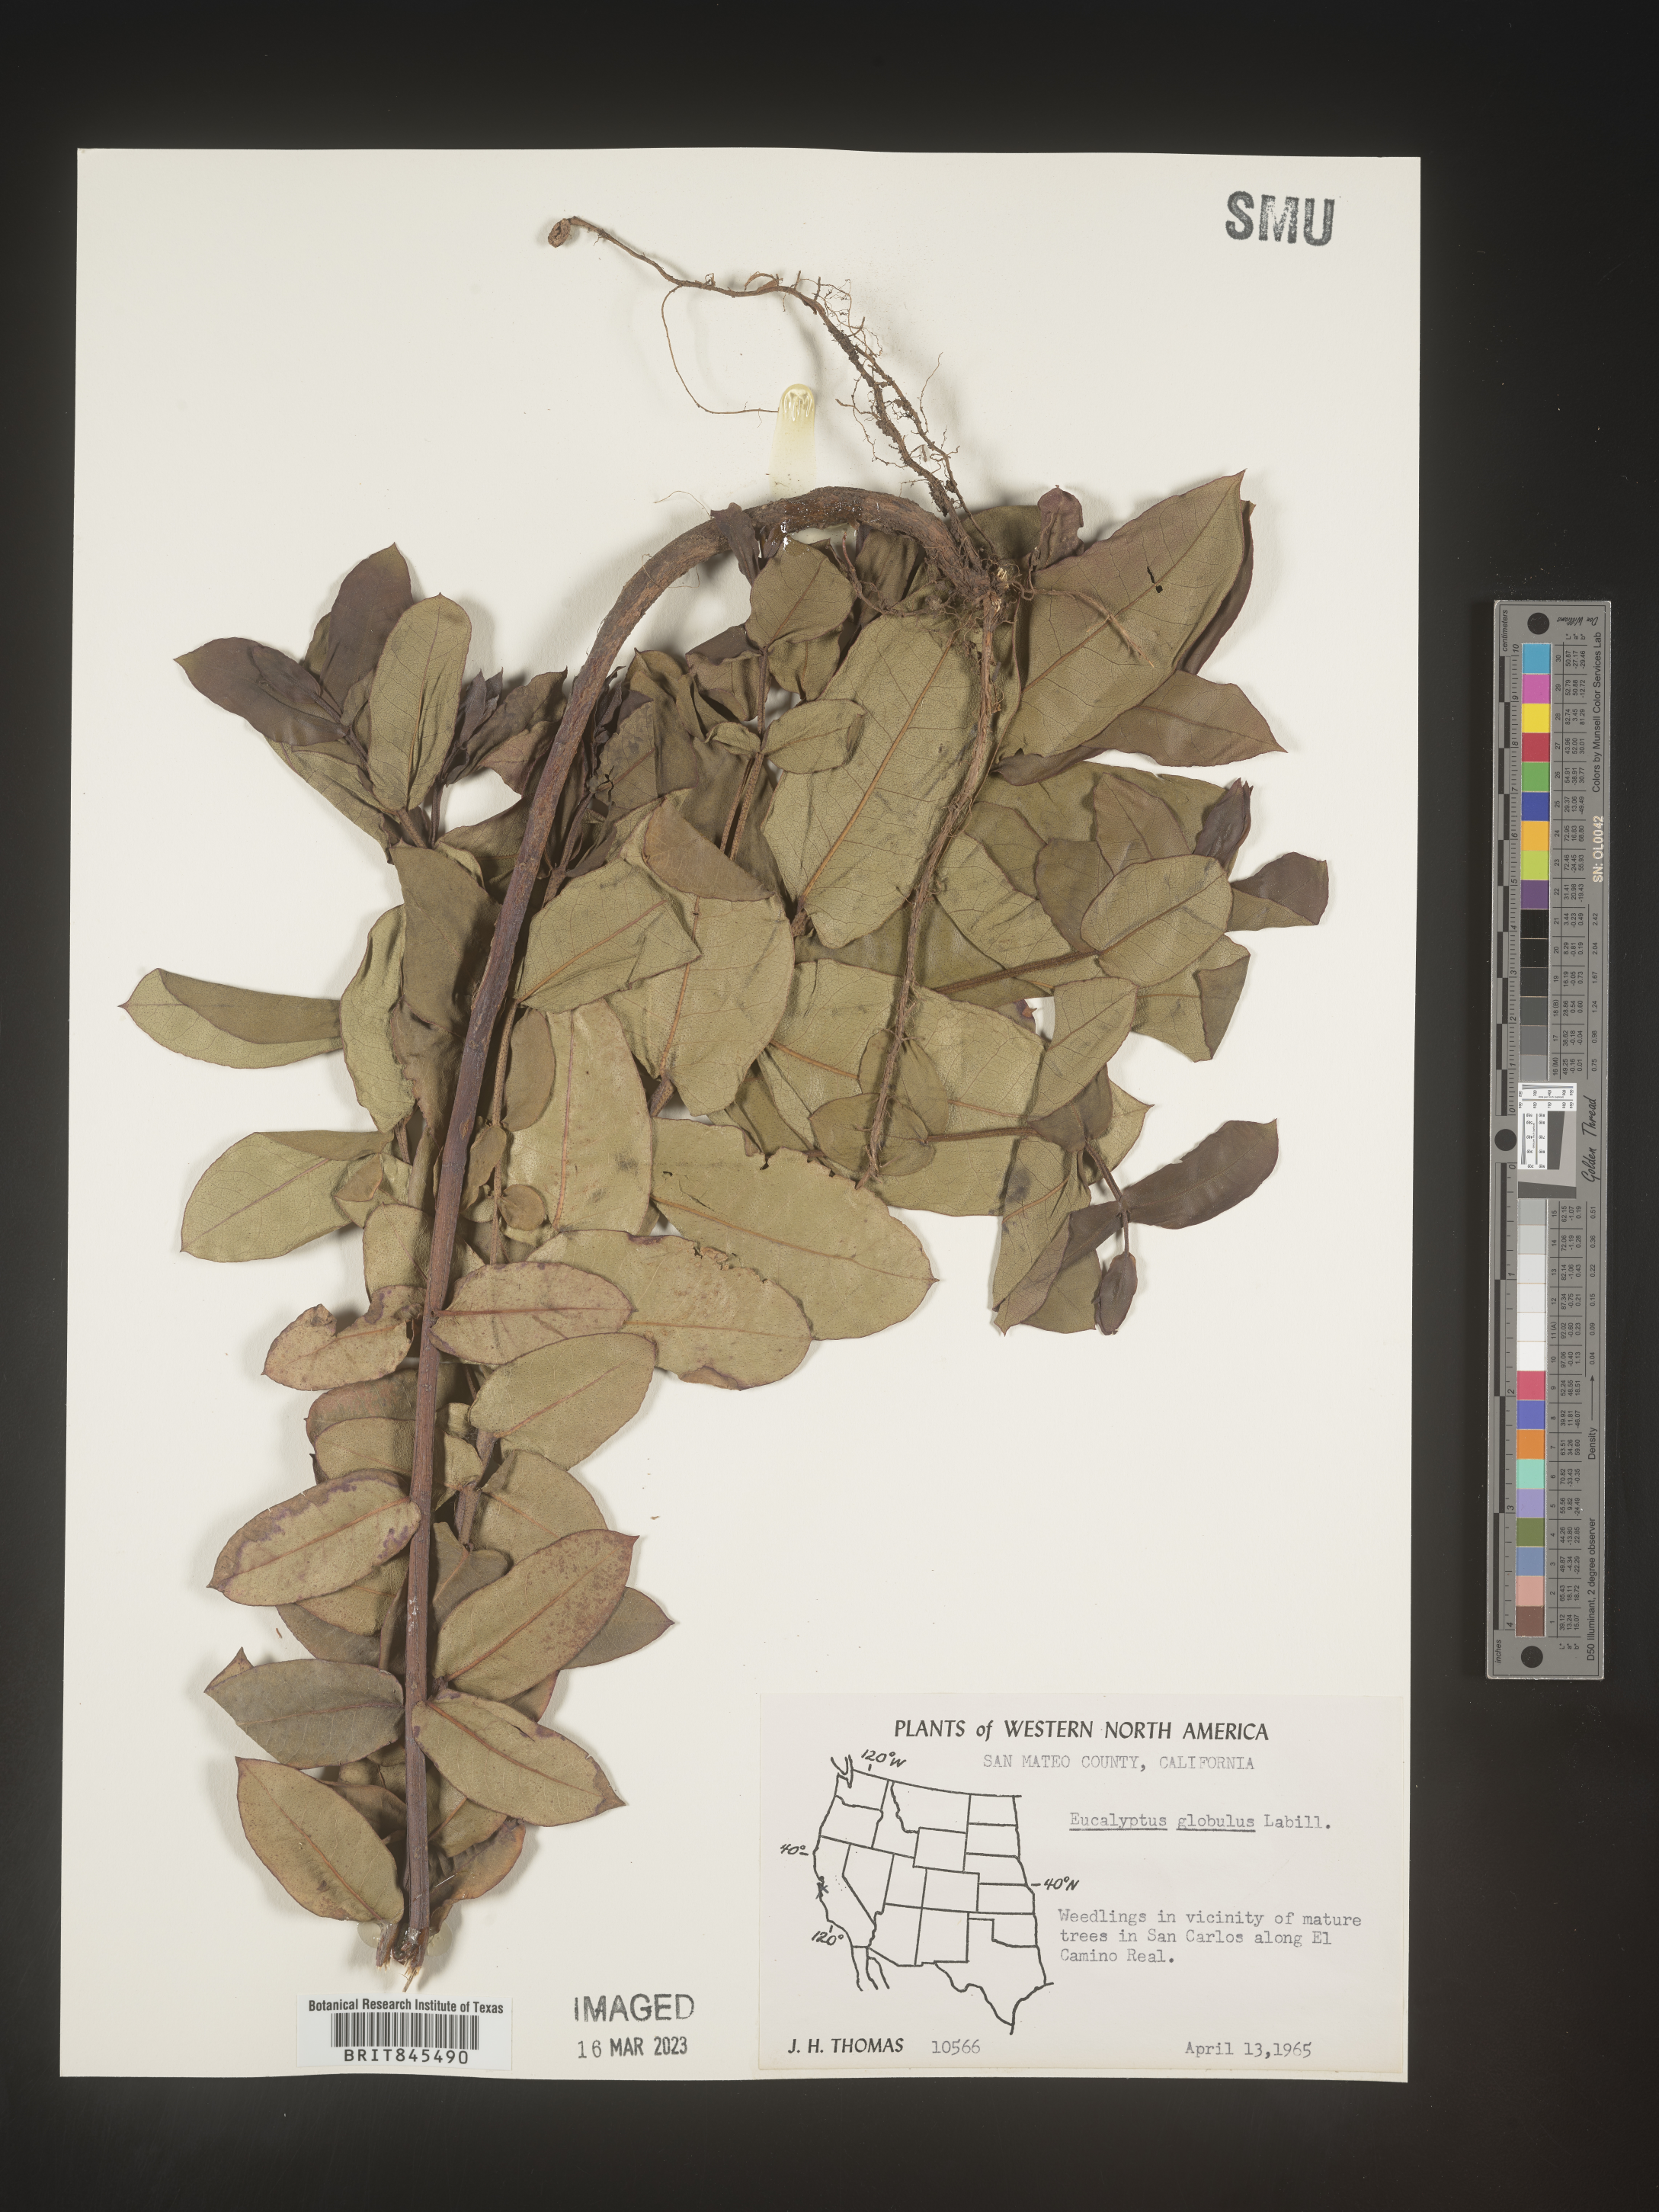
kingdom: Plantae
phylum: Tracheophyta
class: Magnoliopsida
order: Myrtales
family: Myrtaceae
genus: Eucalyptus
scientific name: Eucalyptus
